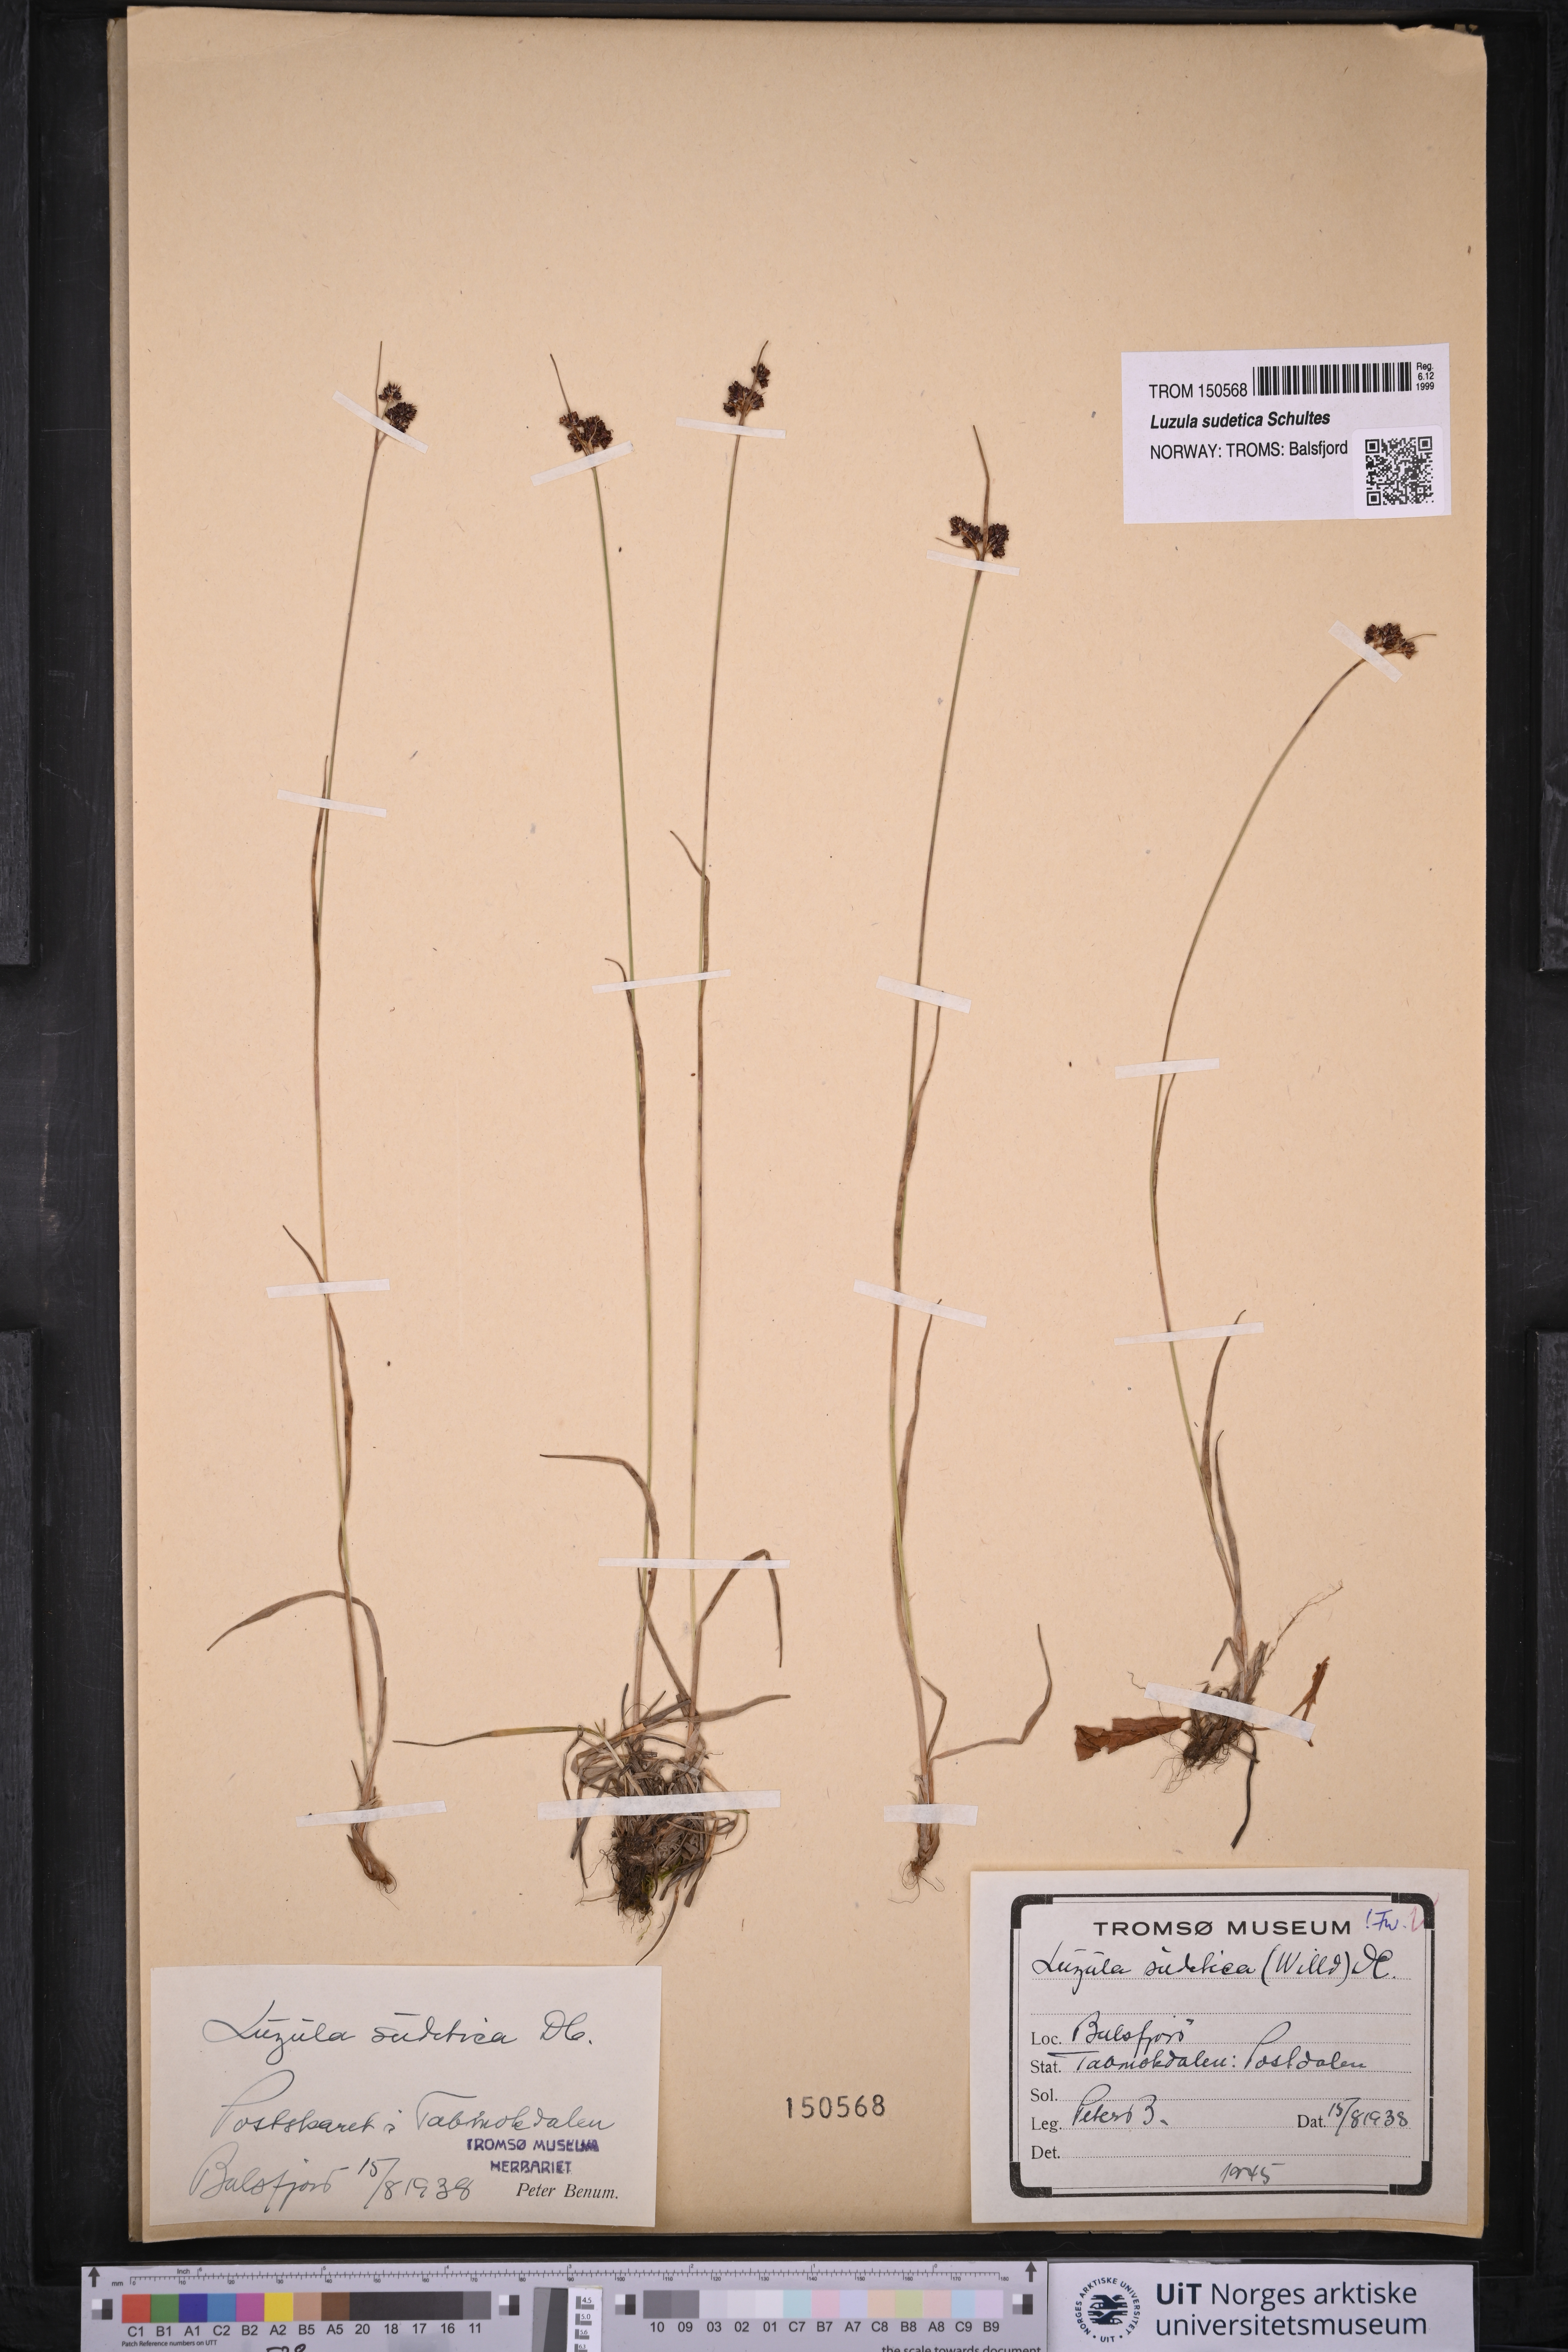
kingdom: Plantae
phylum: Tracheophyta
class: Liliopsida
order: Poales
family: Juncaceae
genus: Luzula
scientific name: Luzula sudetica
